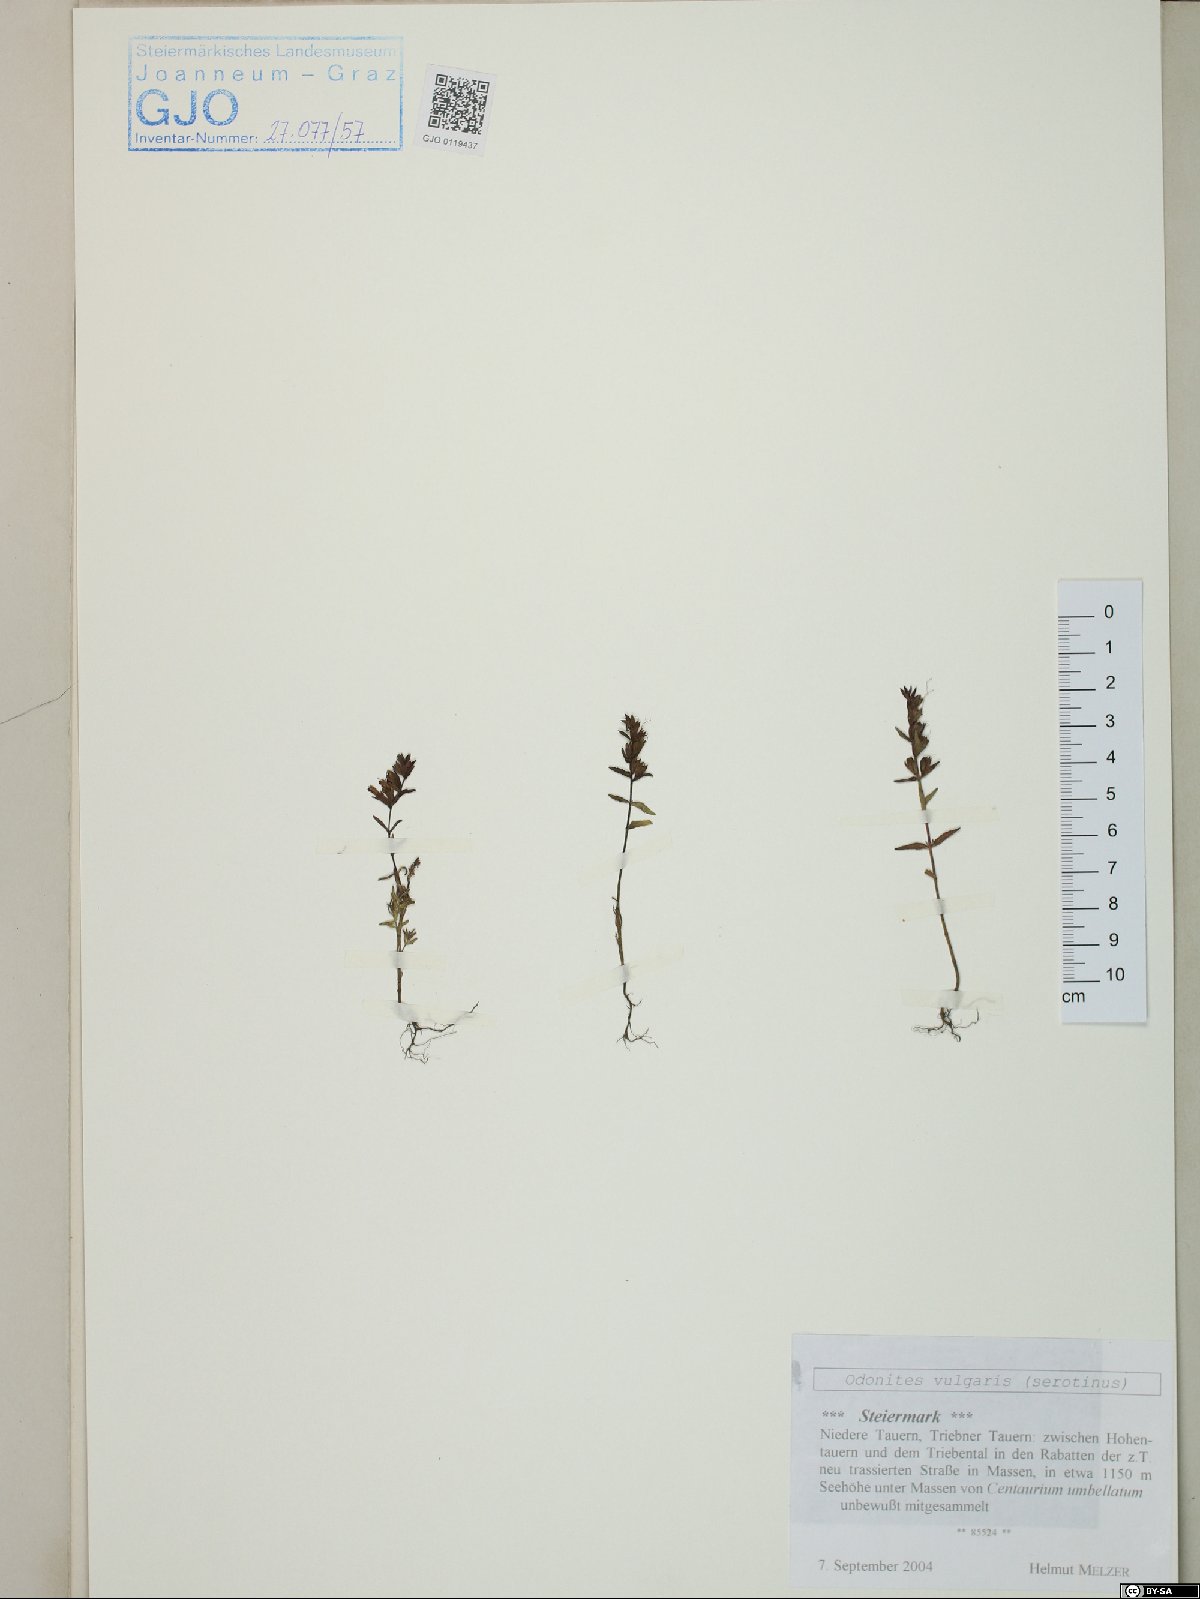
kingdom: Plantae
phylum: Tracheophyta
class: Magnoliopsida
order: Lamiales
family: Orobanchaceae
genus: Odontites
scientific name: Odontites vulgaris
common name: Broomrape
